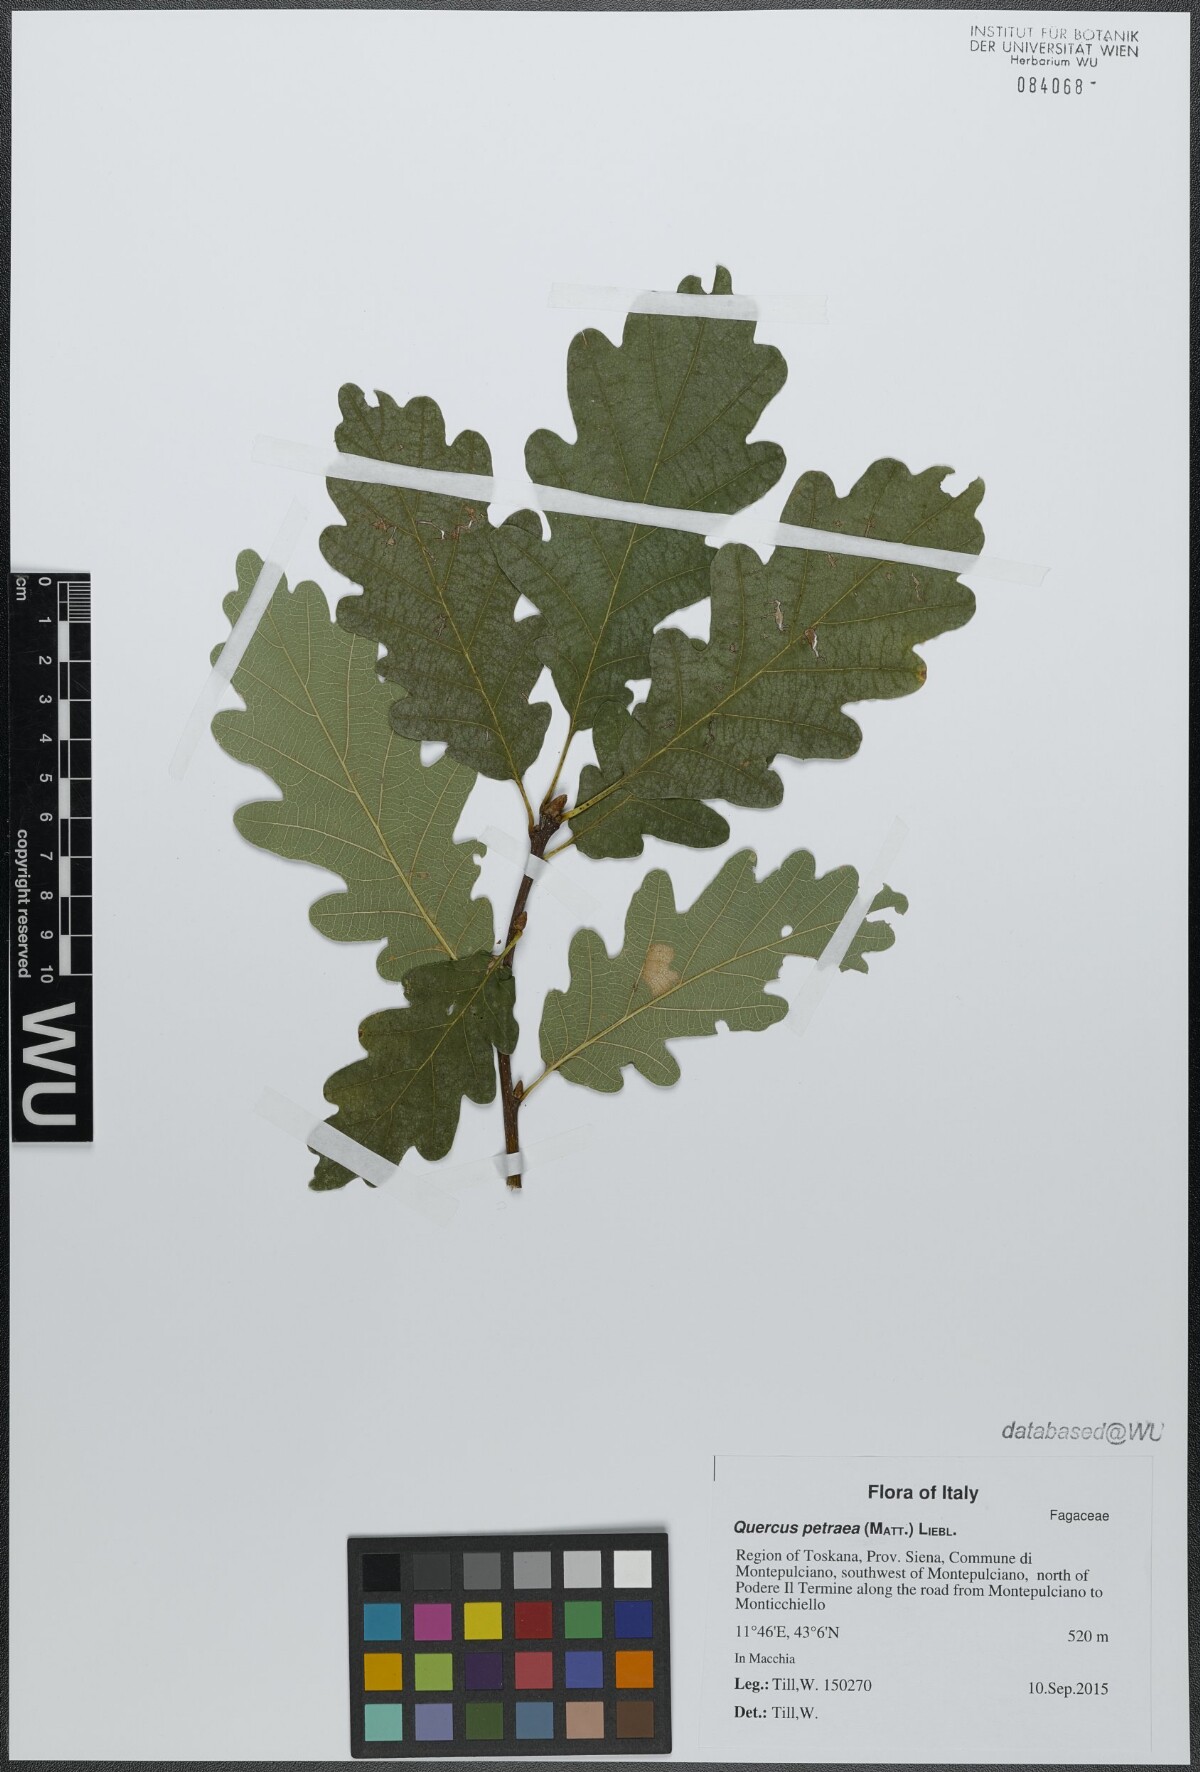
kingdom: Plantae
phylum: Tracheophyta
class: Magnoliopsida
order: Fagales
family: Fagaceae
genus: Quercus
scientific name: Quercus petraea
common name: Sessile oak
